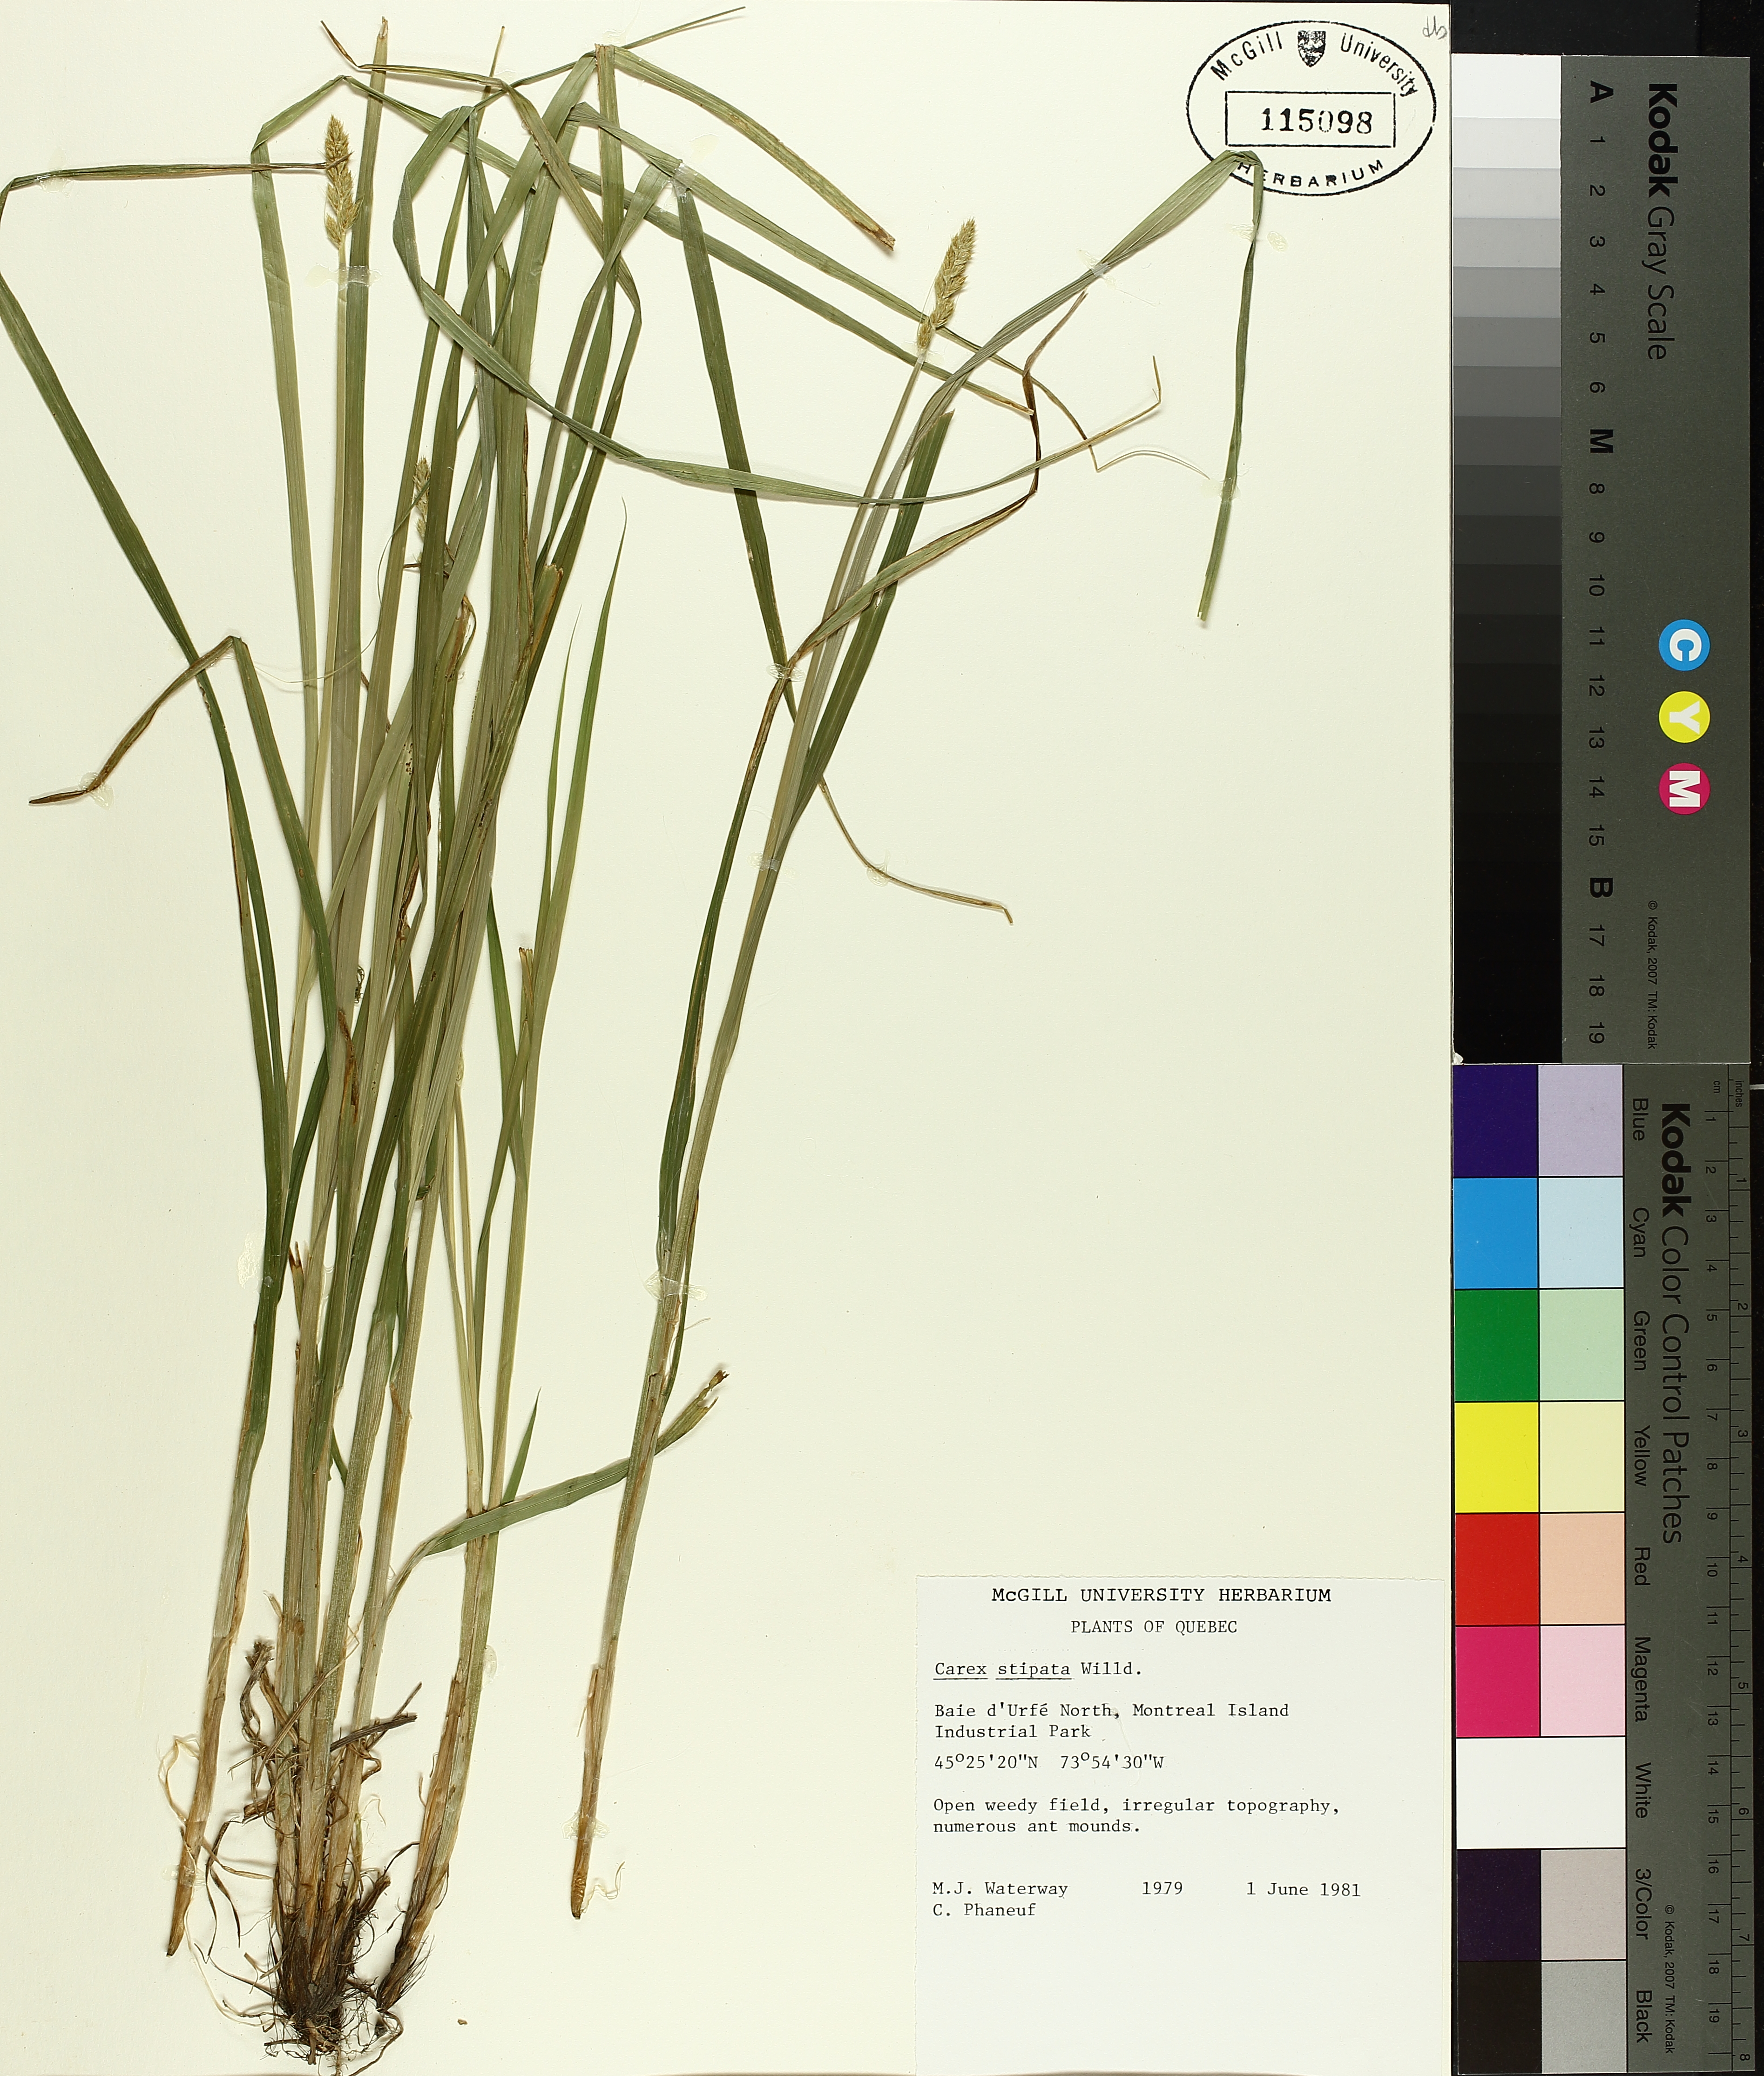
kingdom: Plantae
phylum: Tracheophyta
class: Liliopsida
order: Poales
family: Cyperaceae
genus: Carex
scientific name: Carex stipata
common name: Awl-fruited sedge
